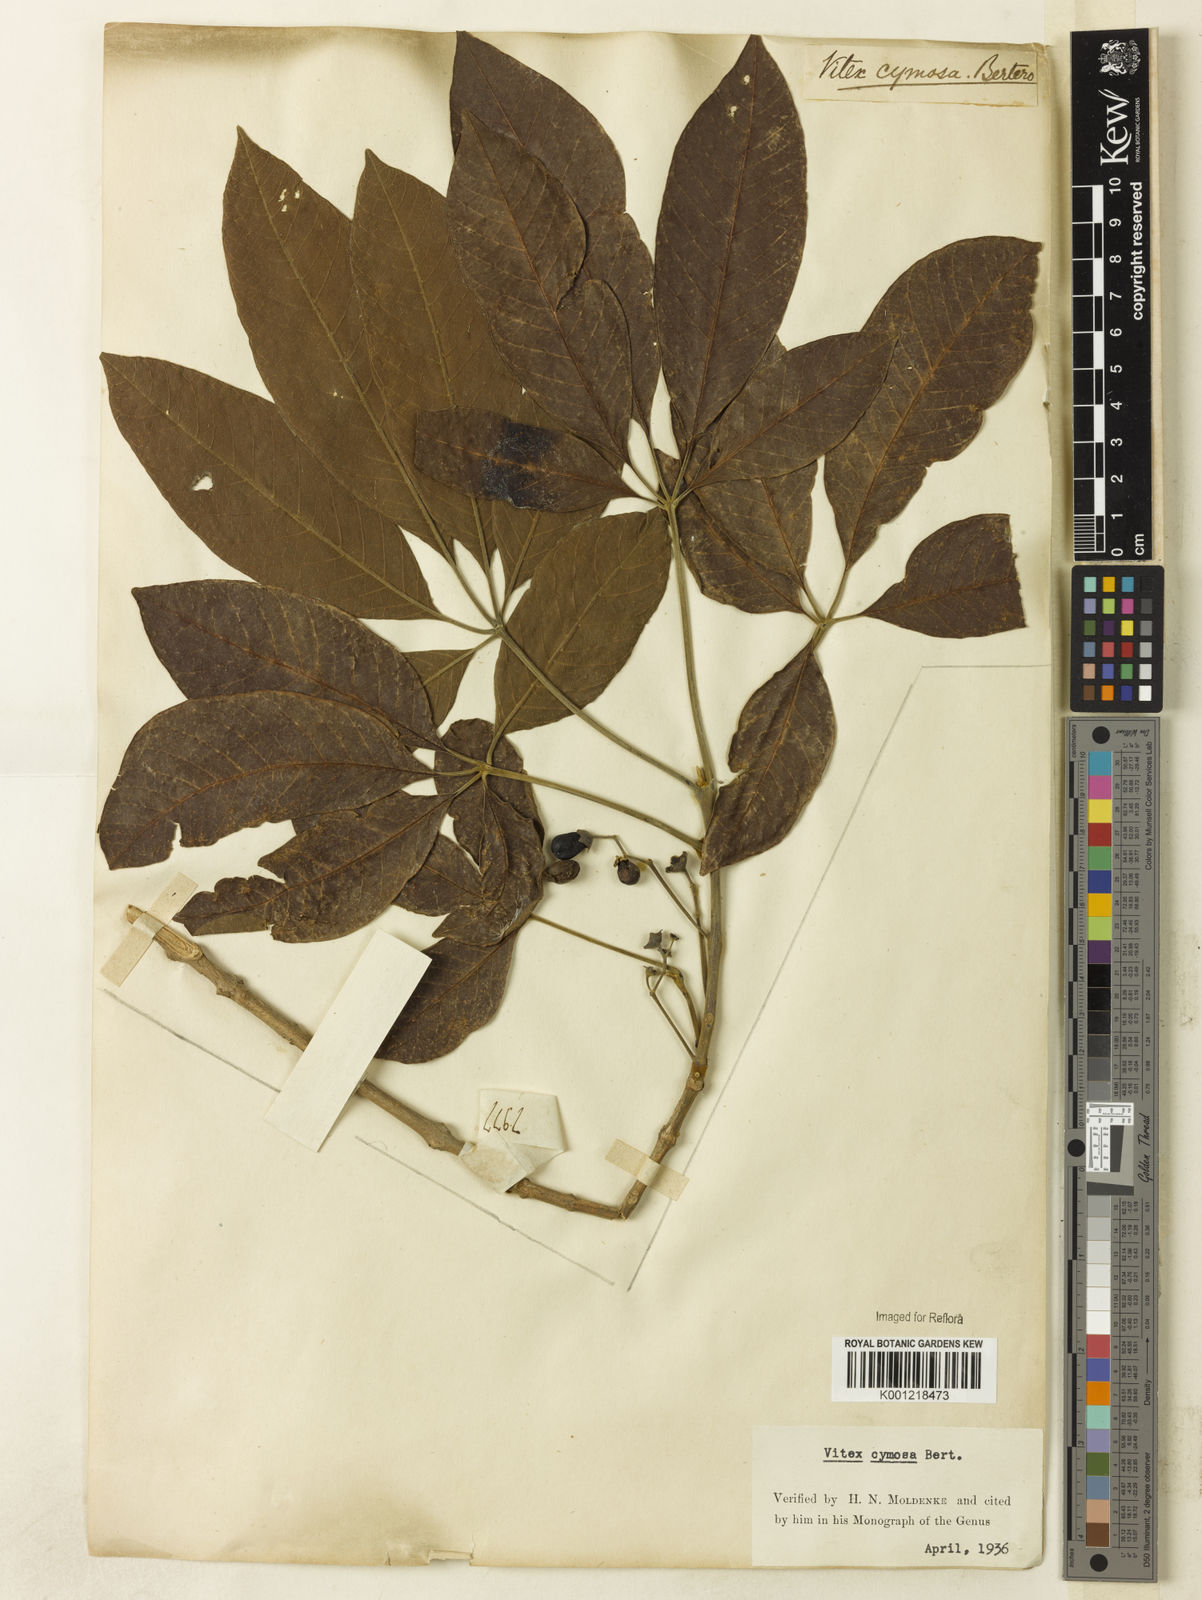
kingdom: Plantae
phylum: Tracheophyta
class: Magnoliopsida
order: Lamiales
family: Lamiaceae
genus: Vitex
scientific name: Vitex cymosa
